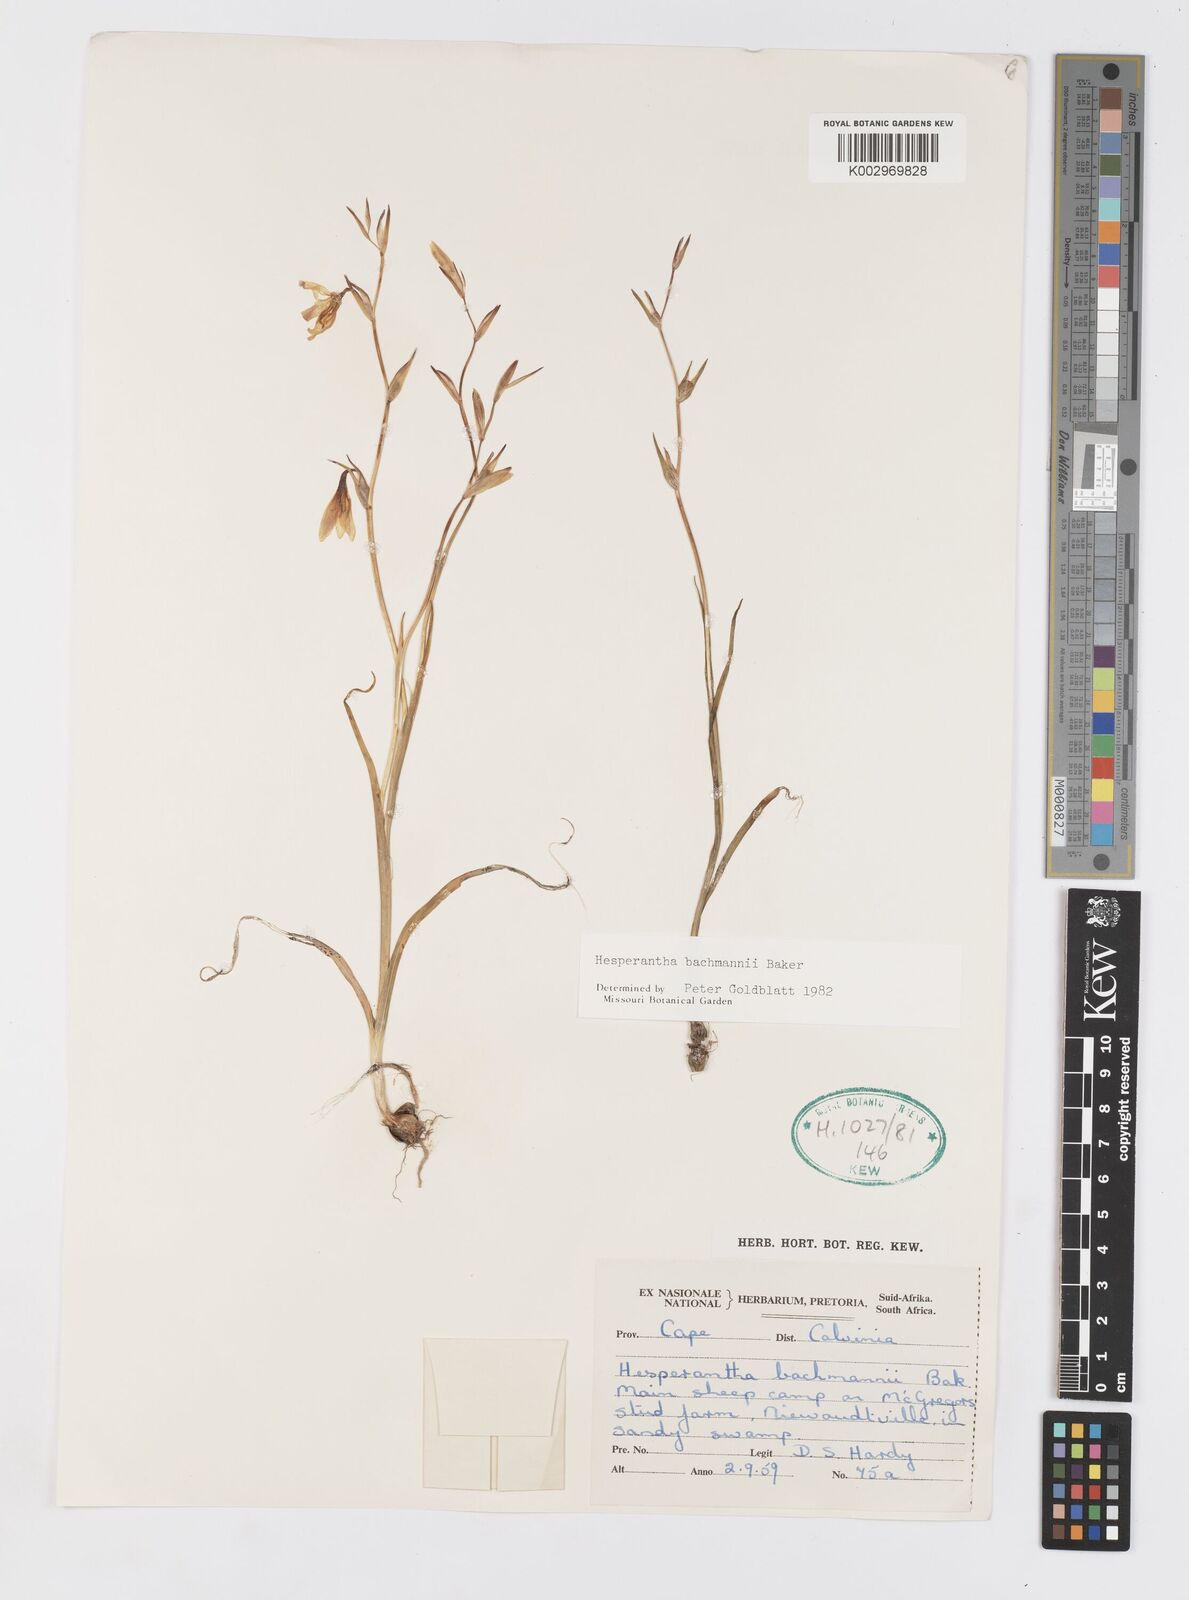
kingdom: Plantae
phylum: Tracheophyta
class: Liliopsida
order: Asparagales
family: Iridaceae
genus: Hesperantha
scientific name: Hesperantha bachmannii
